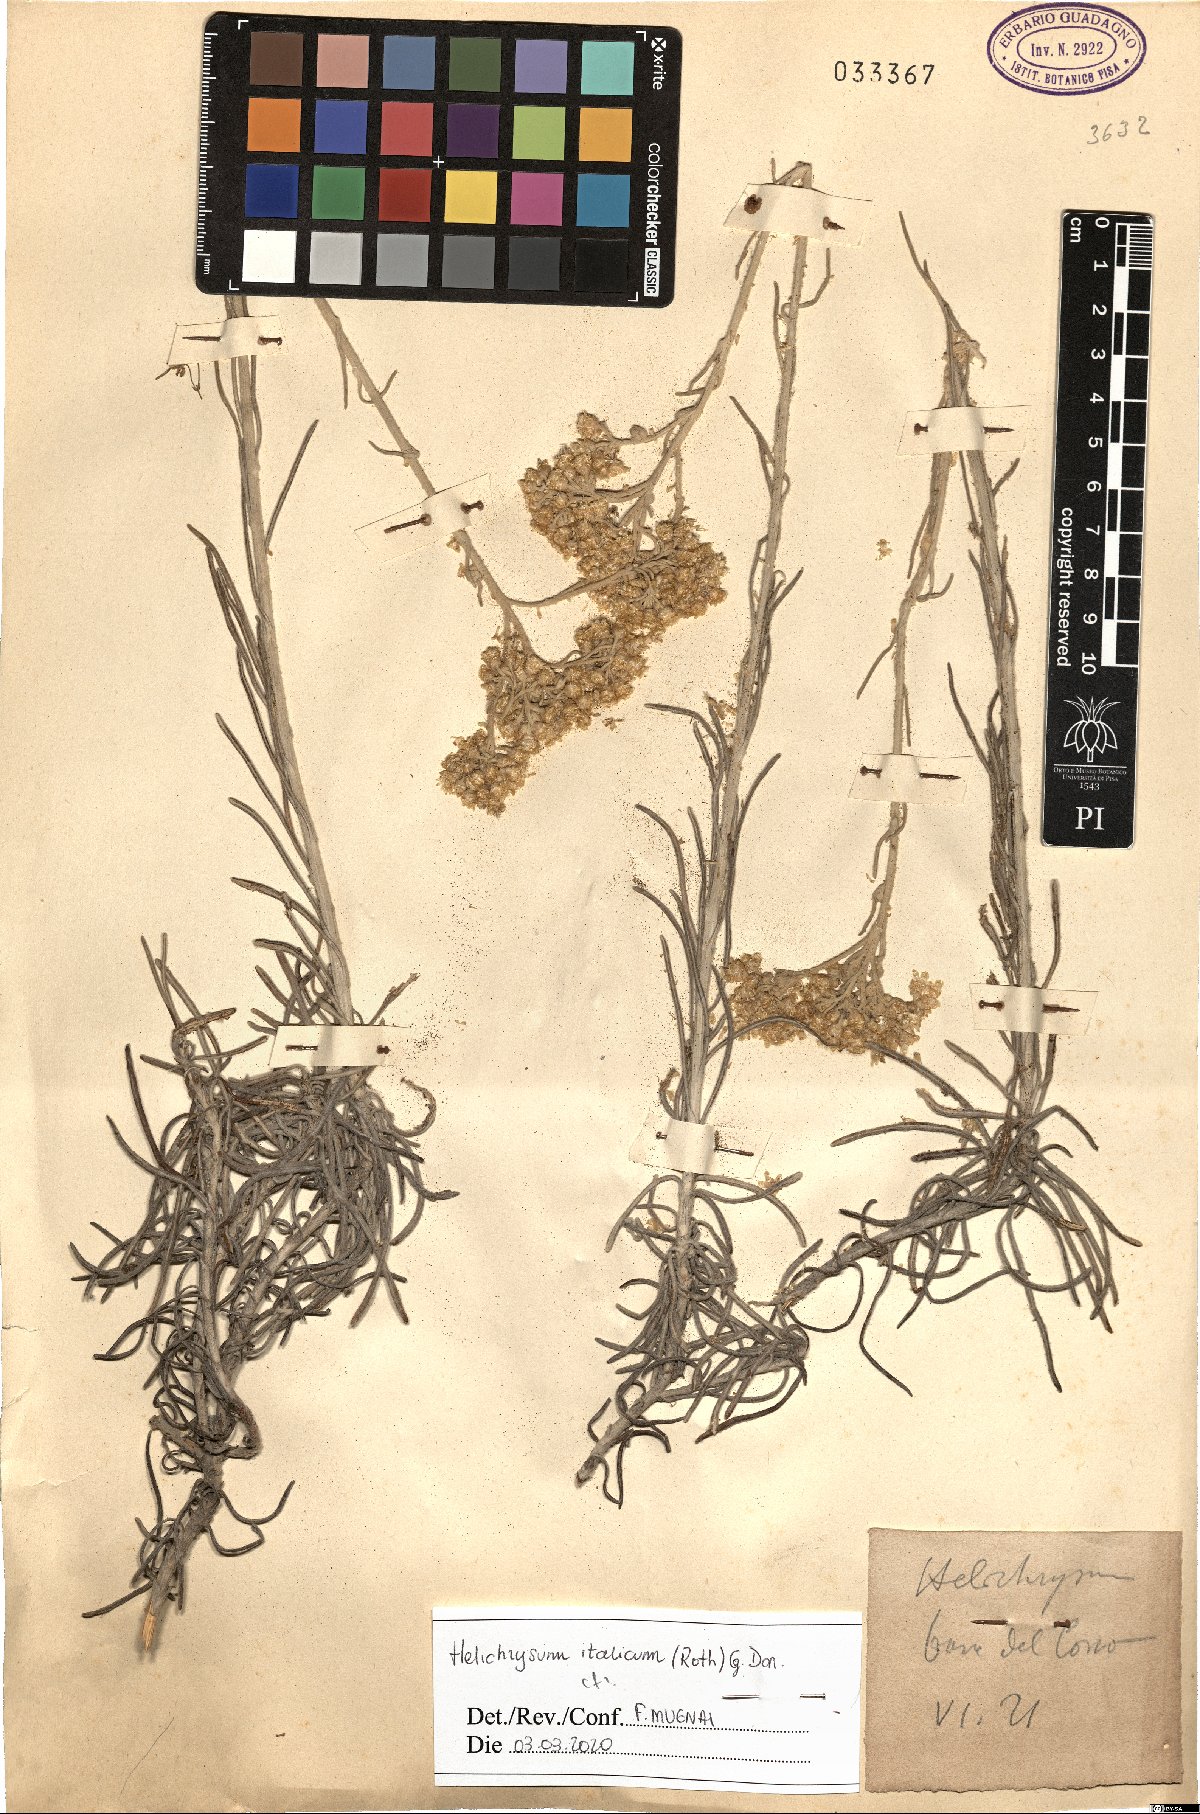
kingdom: Plantae
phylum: Tracheophyta
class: Magnoliopsida
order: Asterales
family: Asteraceae
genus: Helichrysum
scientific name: Helichrysum italicum
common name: Curryplant
